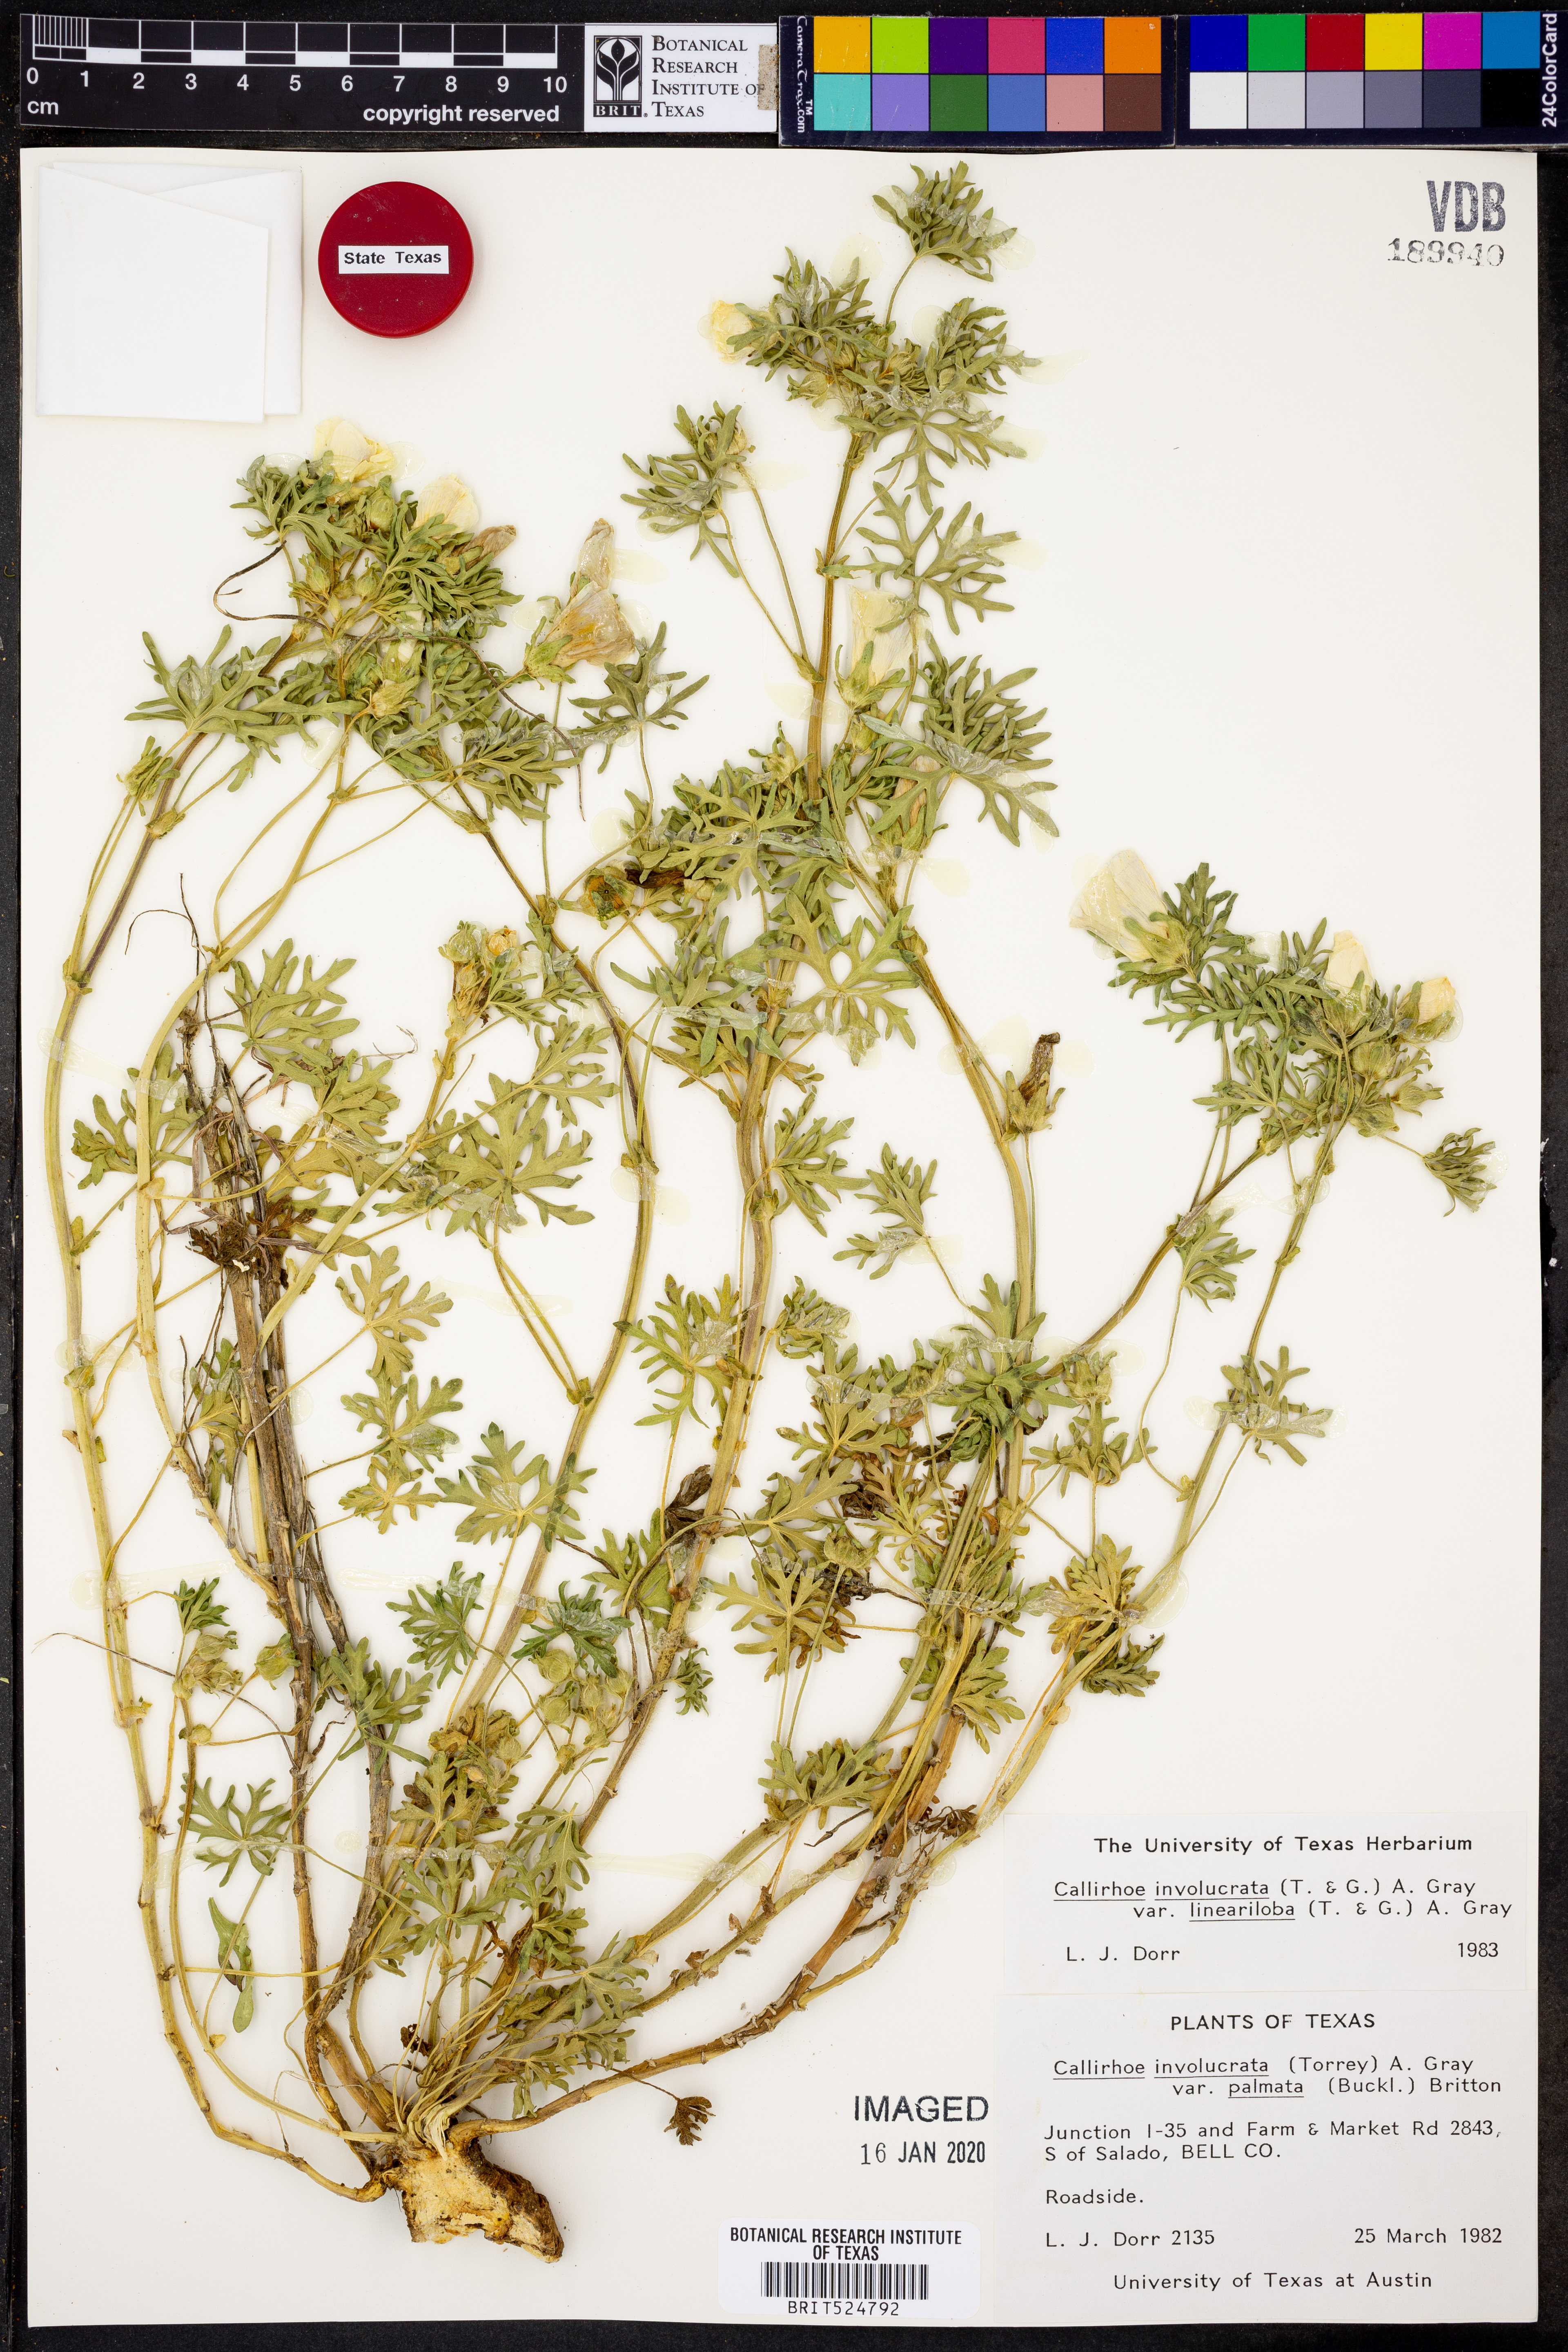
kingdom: Plantae
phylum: Tracheophyta
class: Magnoliopsida
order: Malvales
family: Malvaceae
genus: Callirhoe
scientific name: Callirhoe involucrata
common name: Purple poppy-mallow
